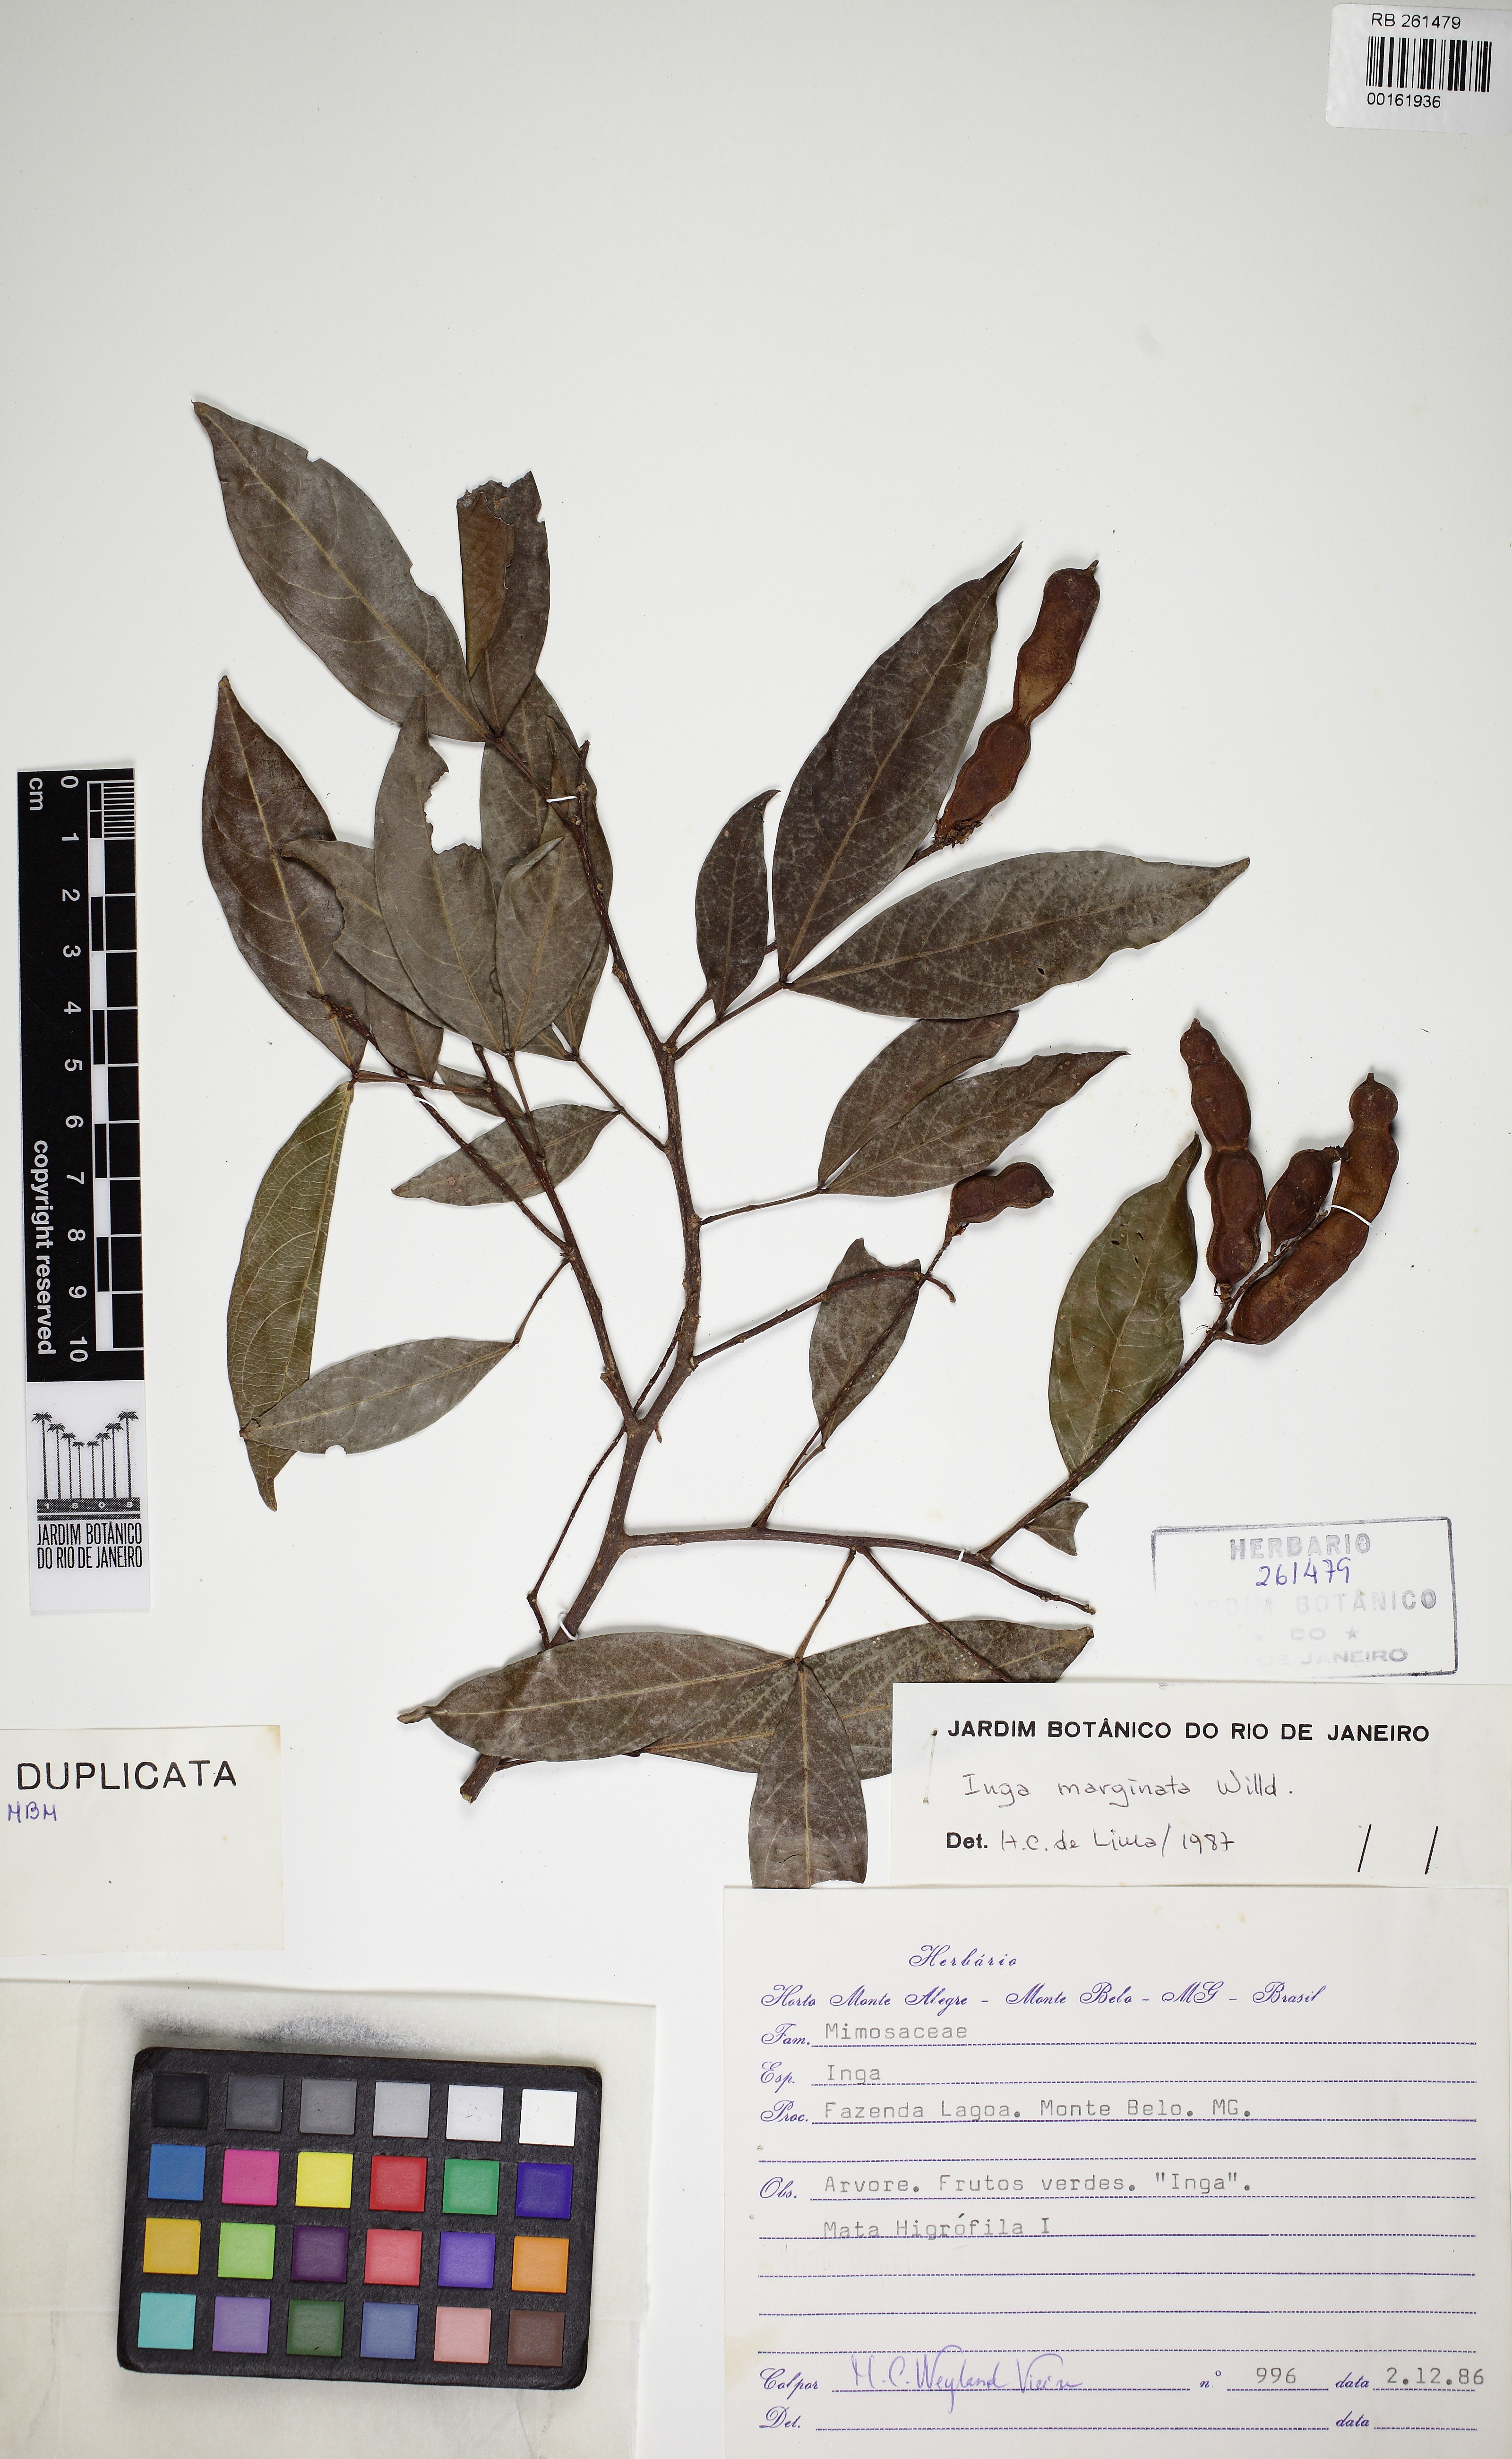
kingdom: Plantae
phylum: Tracheophyta
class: Magnoliopsida
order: Fabales
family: Fabaceae
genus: Inga
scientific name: Inga marginata
